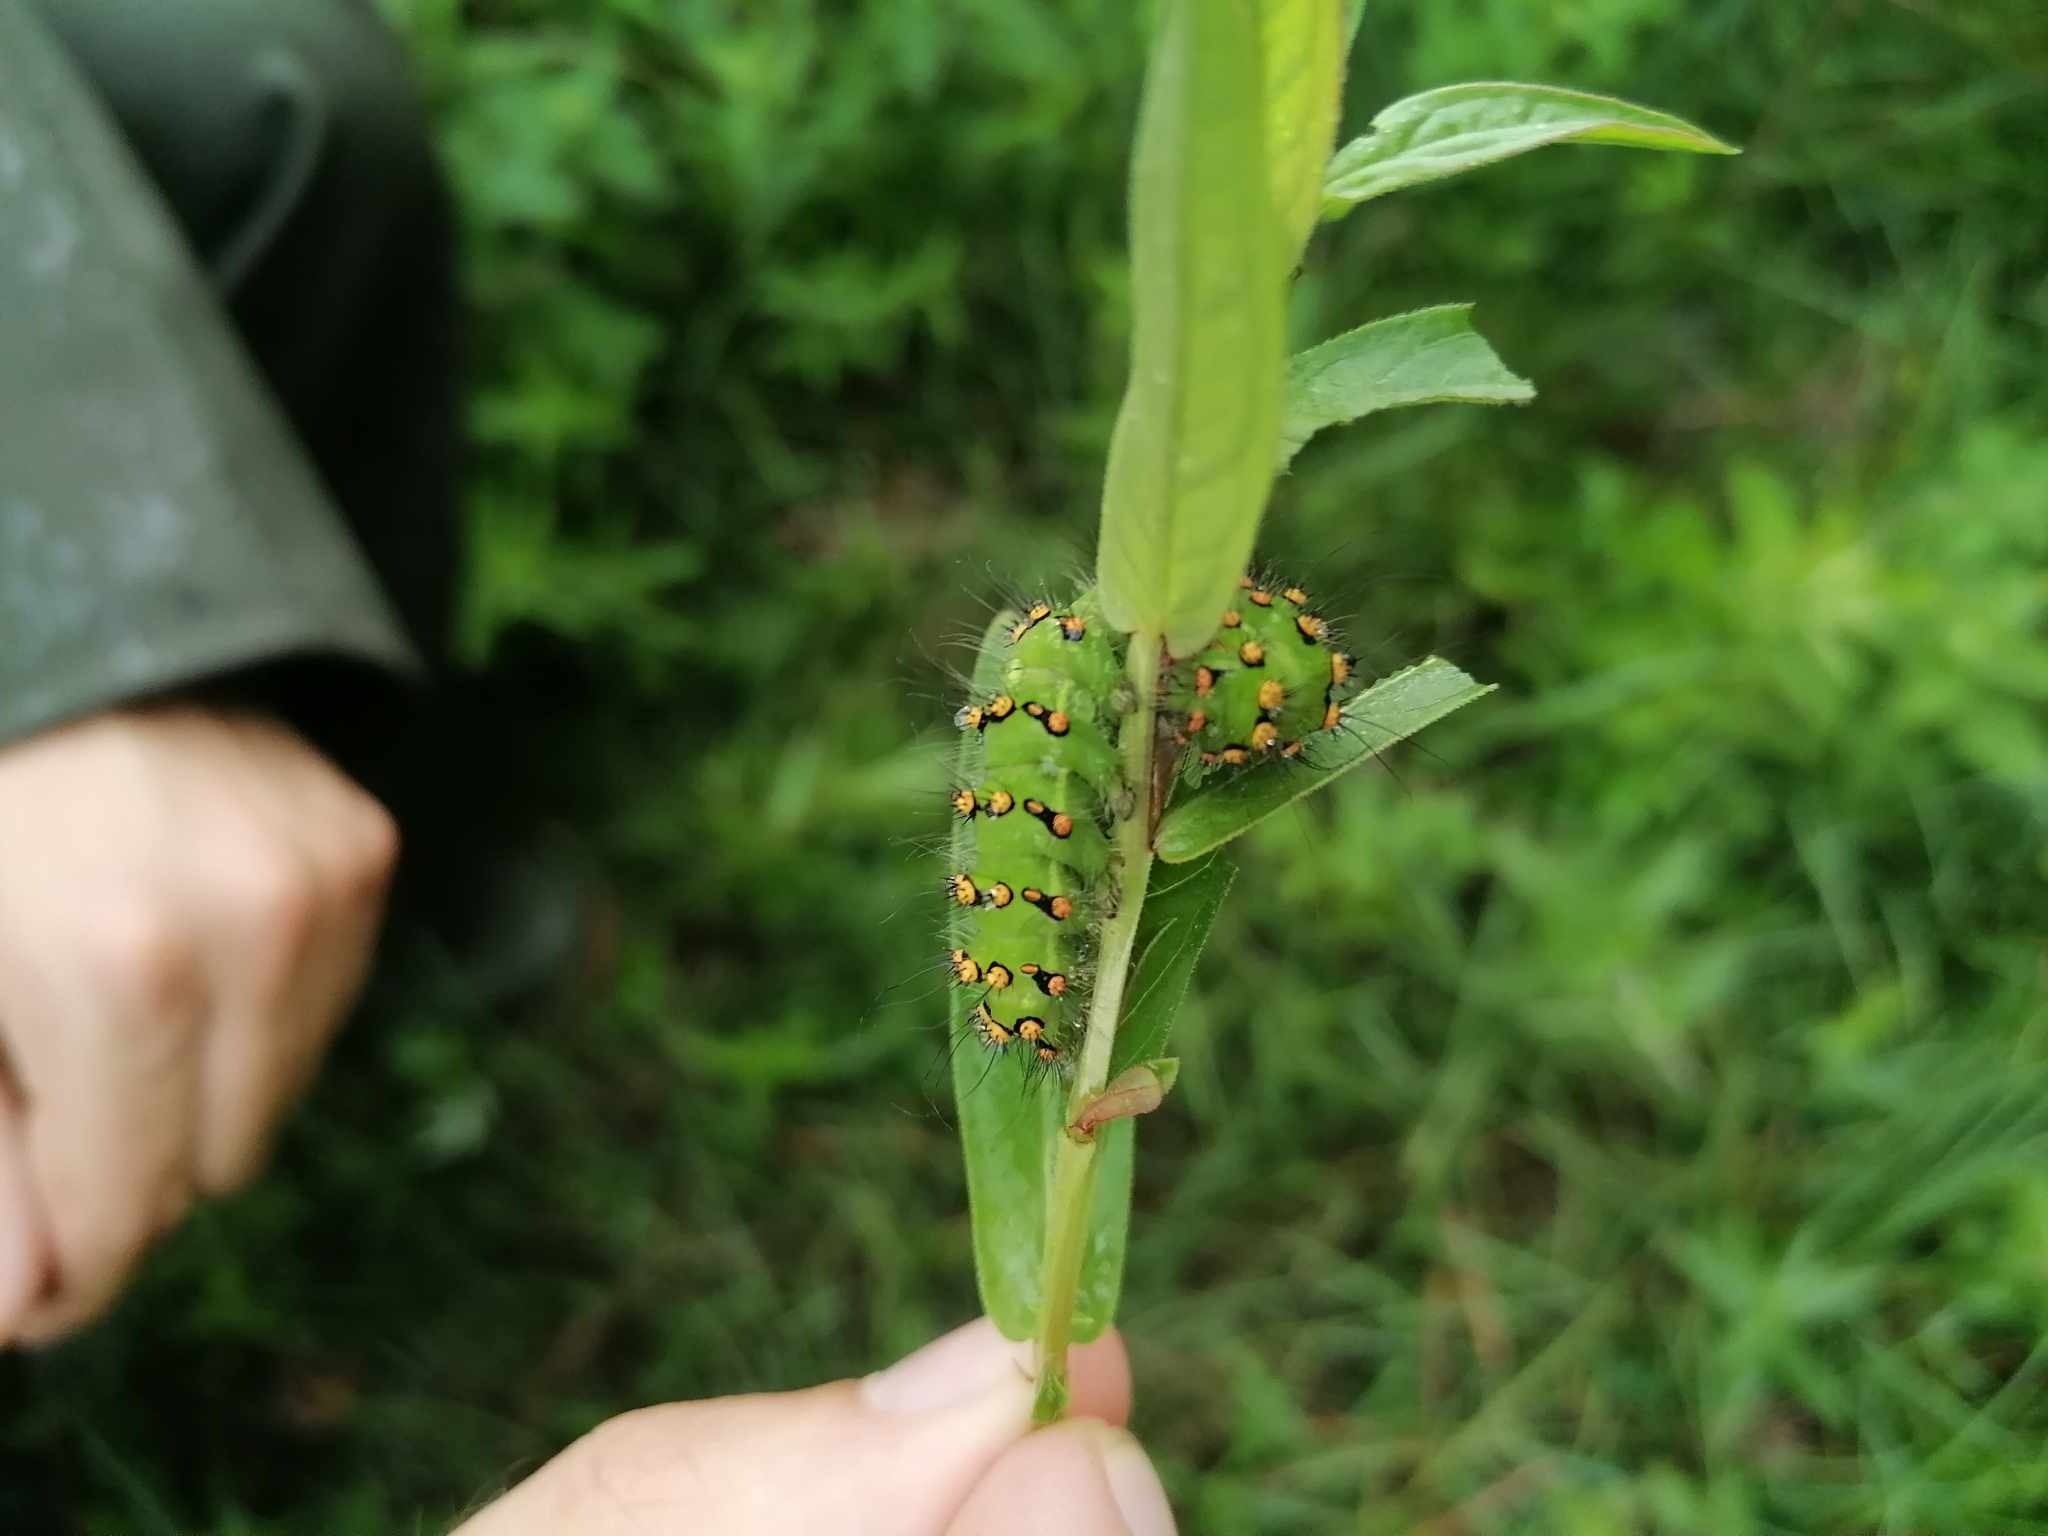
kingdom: Animalia
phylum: Arthropoda
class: Insecta
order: Lepidoptera
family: Saturniidae
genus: Saturnia
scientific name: Saturnia pavonia
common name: Lille natpåfugleøje
